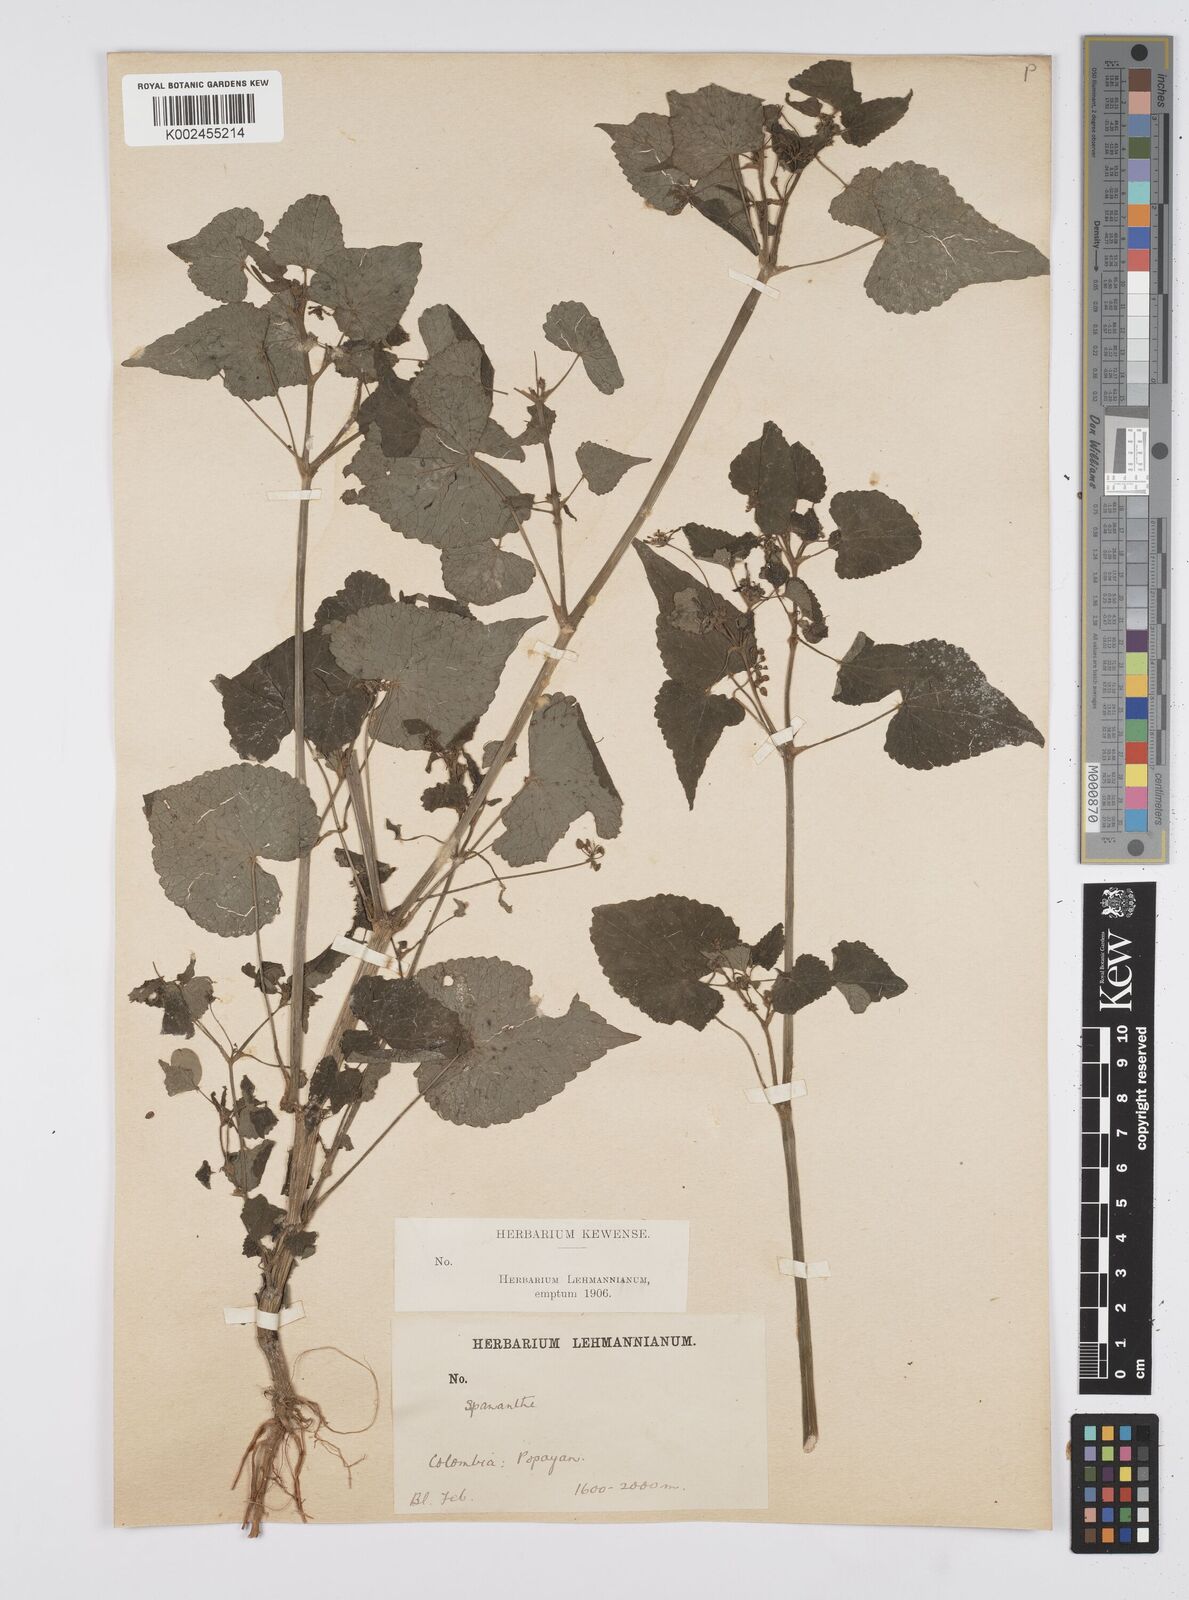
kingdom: Plantae
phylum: Tracheophyta
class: Magnoliopsida
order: Apiales
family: Apiaceae
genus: Azorella
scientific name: Azorella
